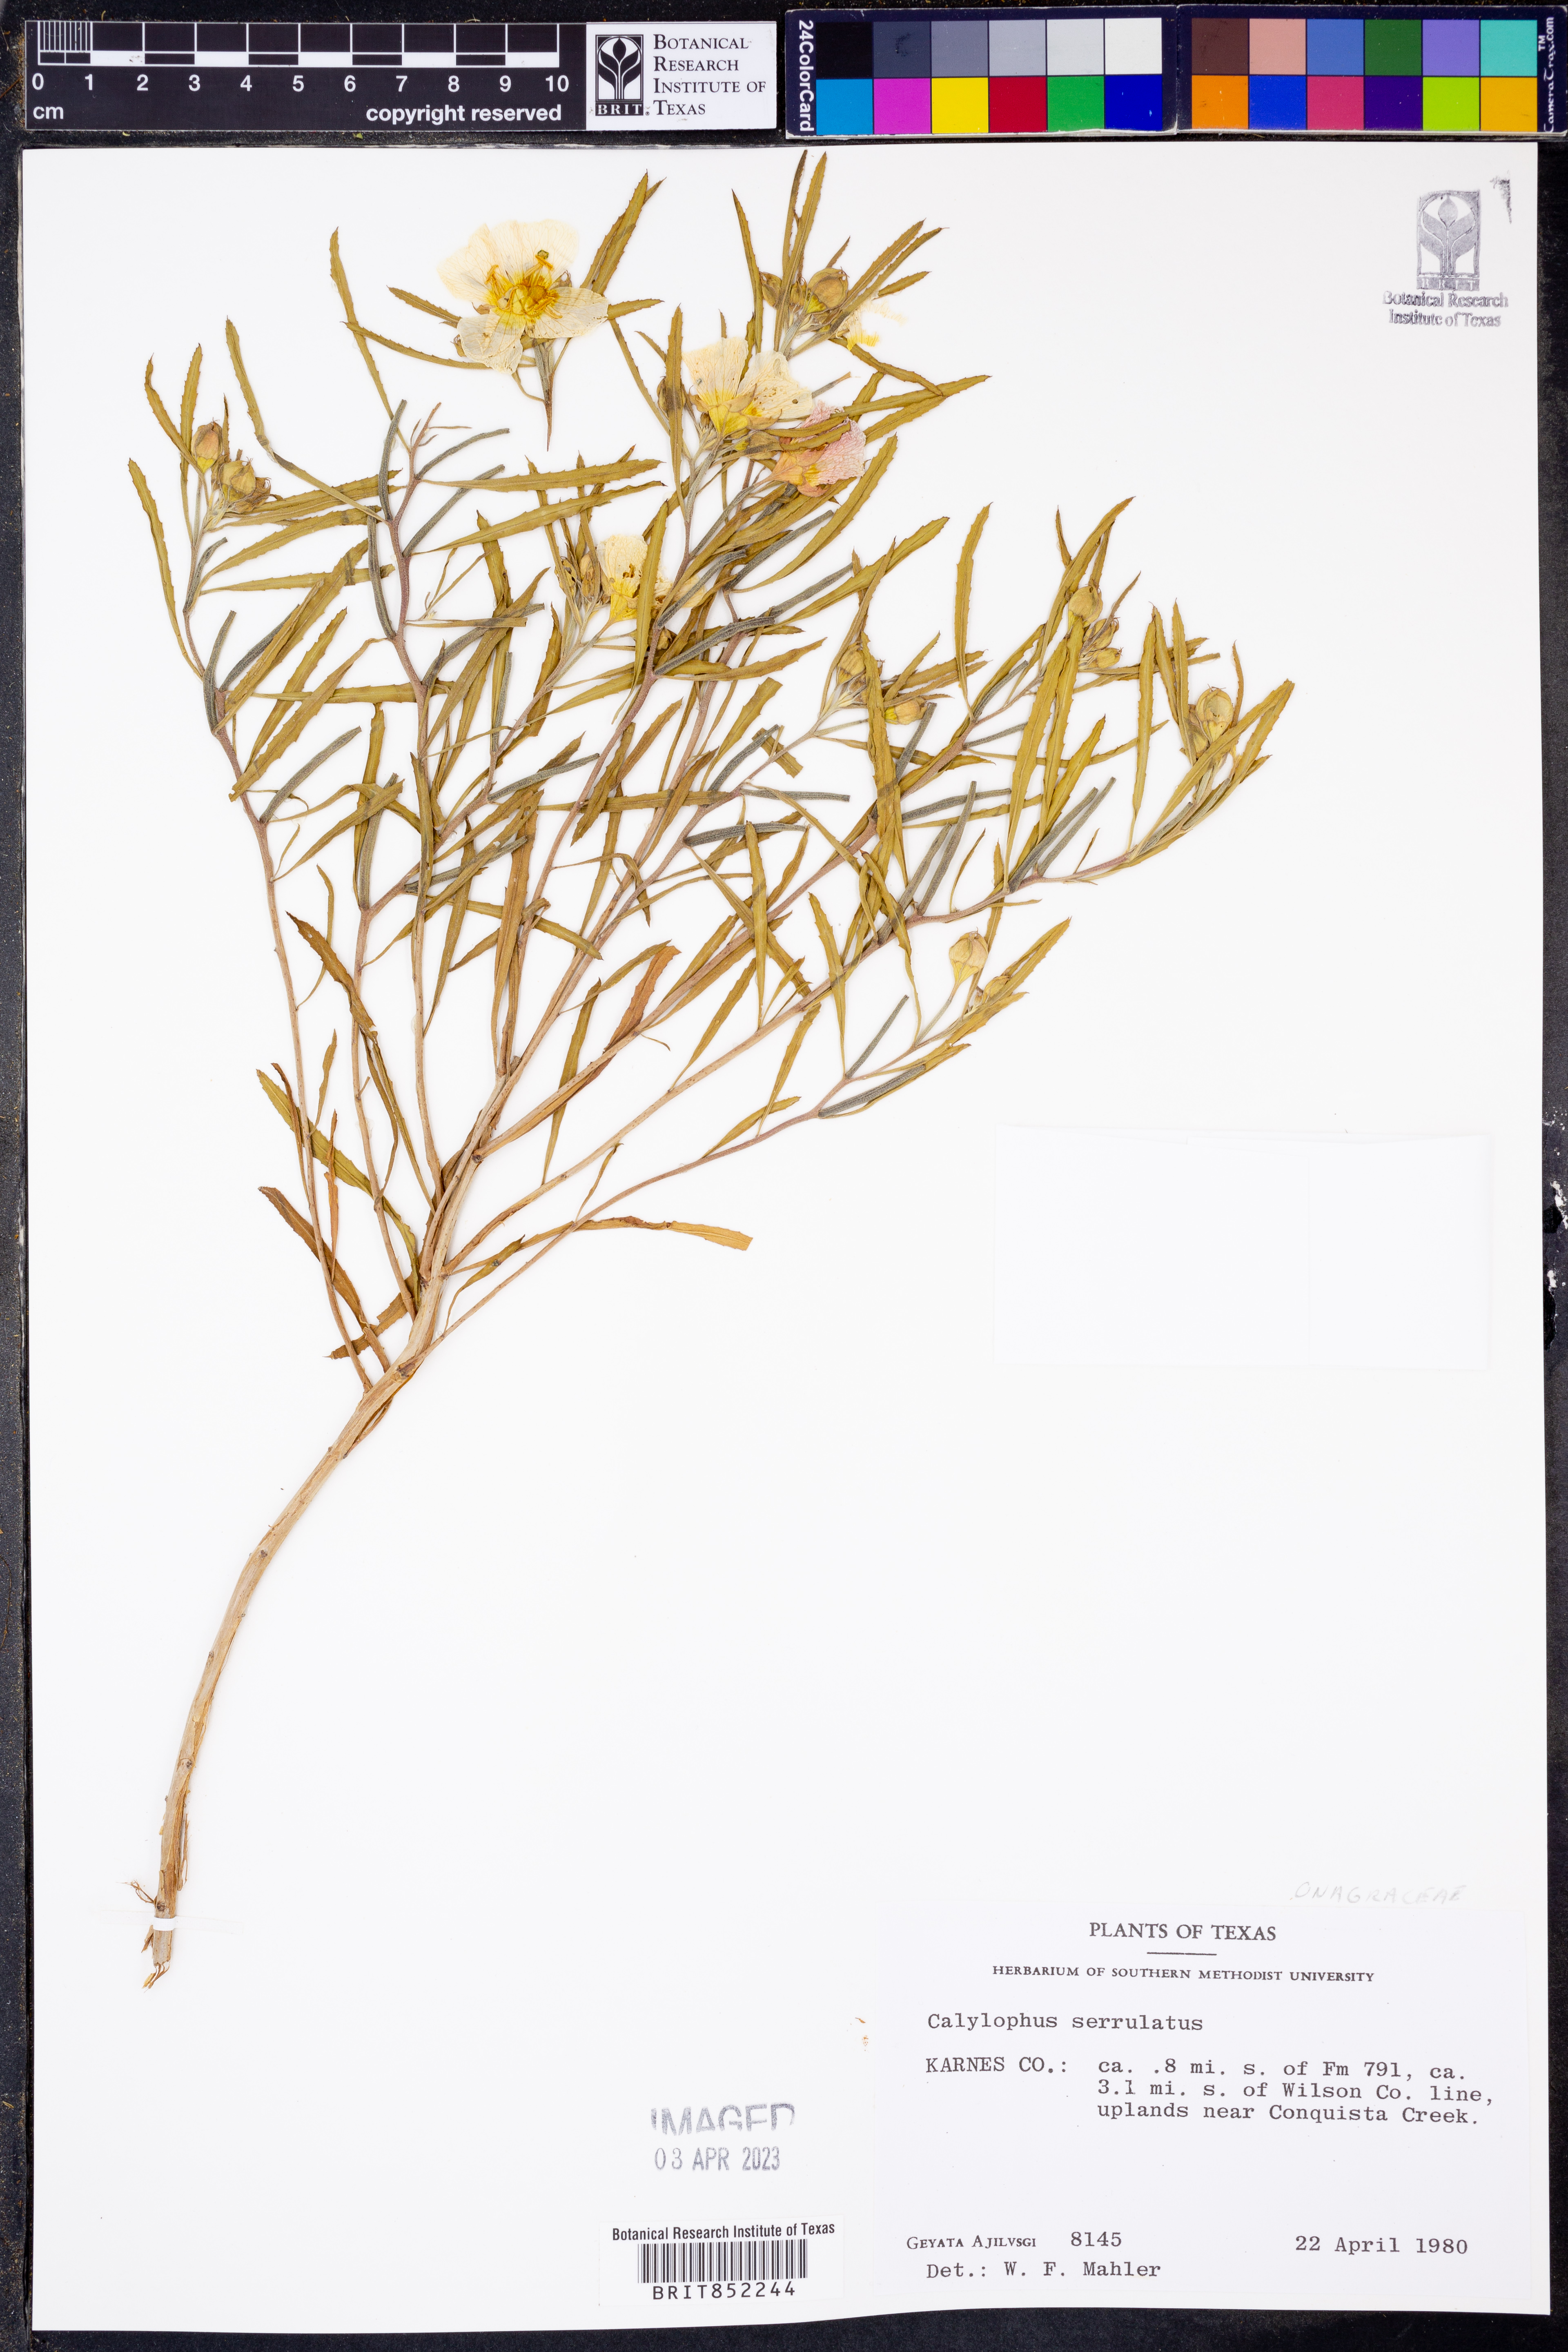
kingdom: Plantae
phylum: Tracheophyta
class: Magnoliopsida
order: Myrtales
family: Onagraceae
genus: Oenothera
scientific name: Oenothera serrulata
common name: Half-shrub calylophus
